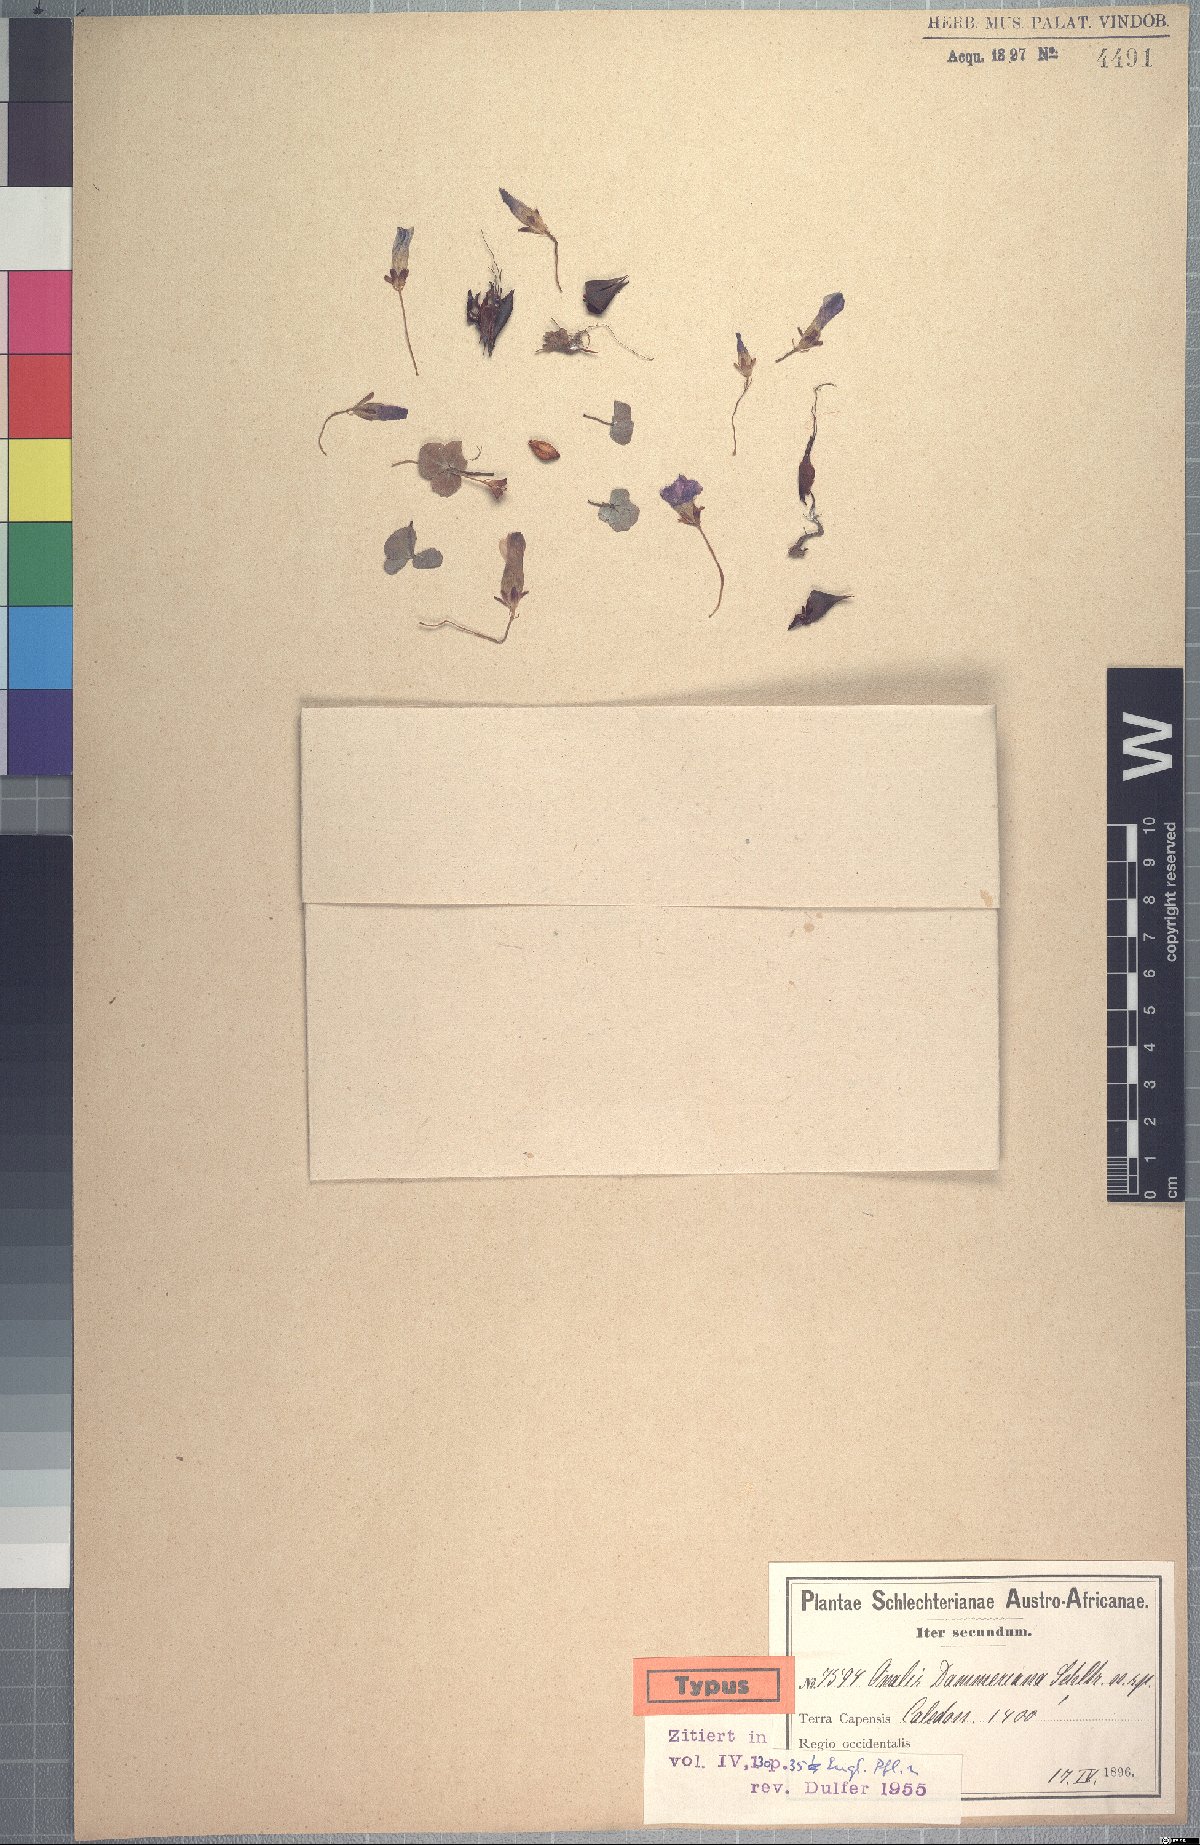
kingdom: Plantae
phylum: Tracheophyta
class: Magnoliopsida
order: Oxalidales
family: Oxalidaceae
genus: Oxalis
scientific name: Oxalis depressa
